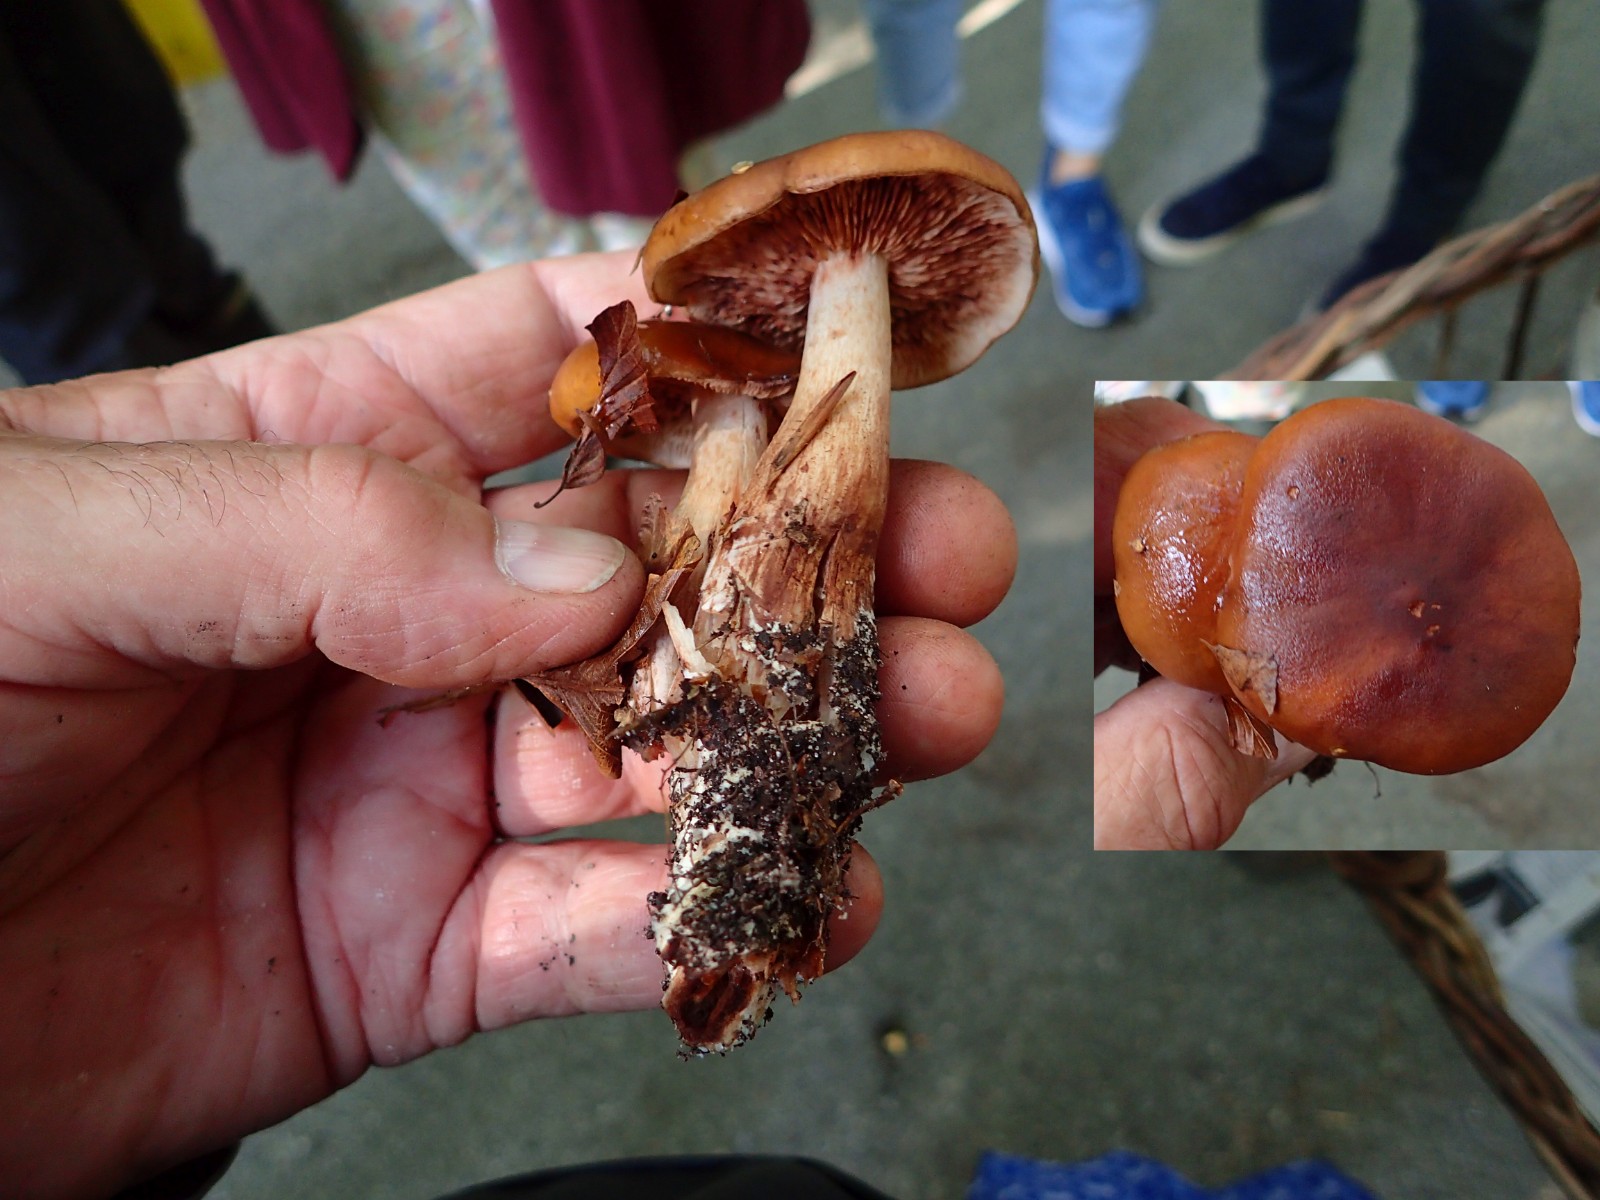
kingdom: Fungi
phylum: Basidiomycota
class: Agaricomycetes
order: Agaricales
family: Tricholomataceae
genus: Tricholoma
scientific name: Tricholoma ustale
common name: sveden ridderhat
